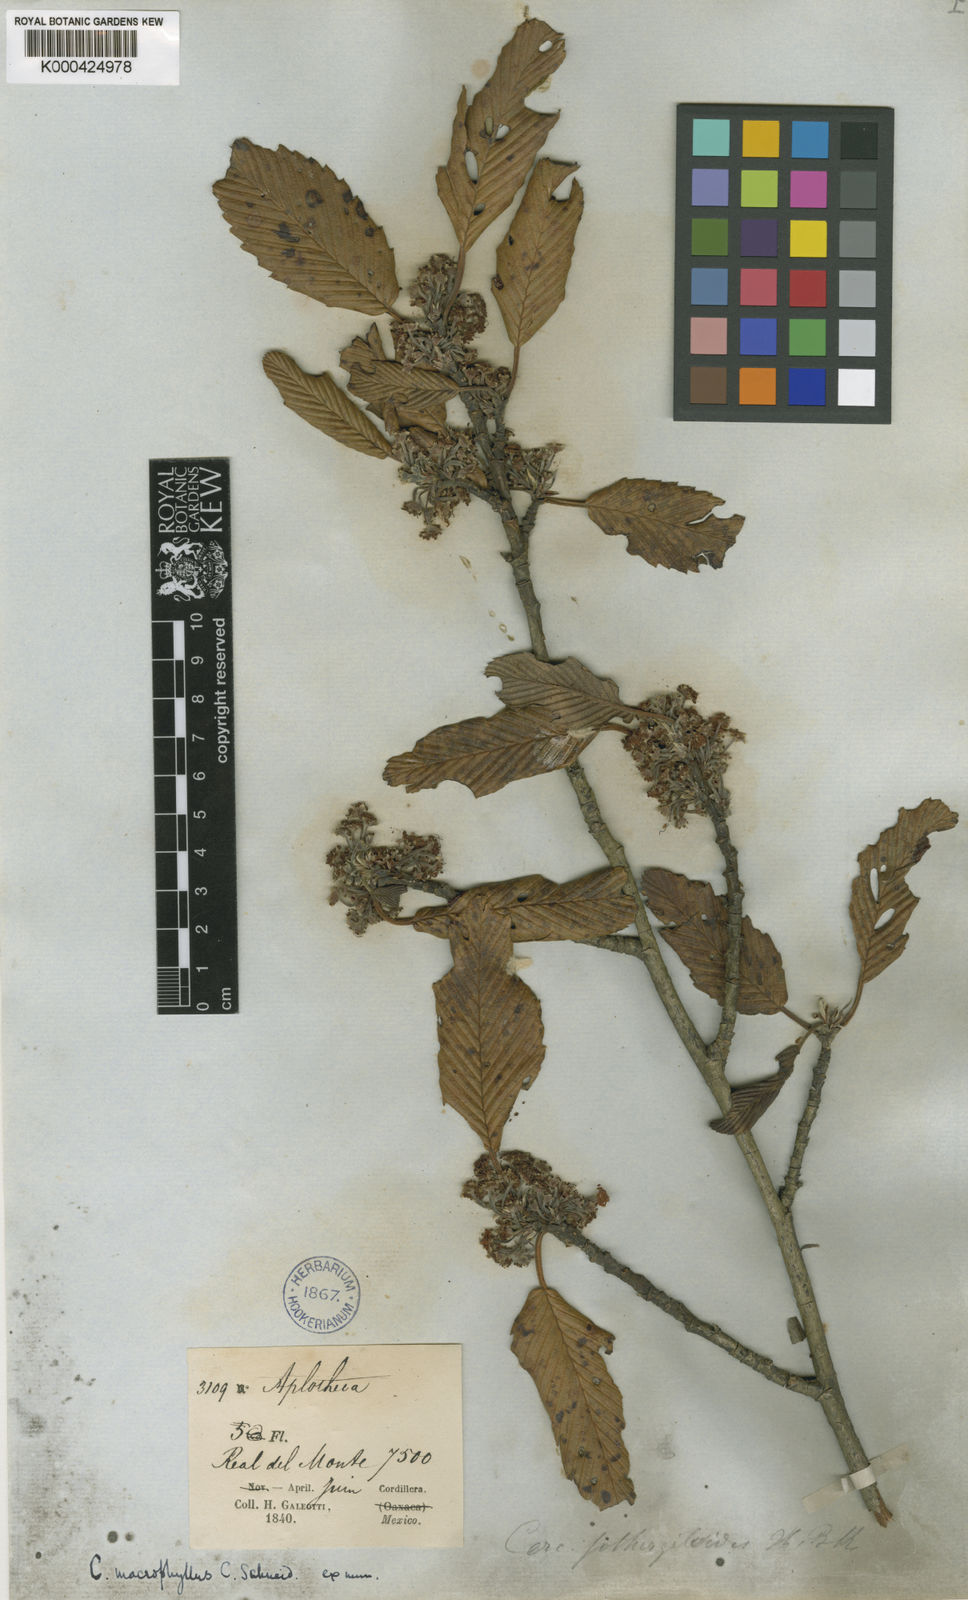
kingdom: Plantae
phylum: Tracheophyta
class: Magnoliopsida
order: Rosales
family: Rosaceae
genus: Cercocarpus
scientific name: Cercocarpus
